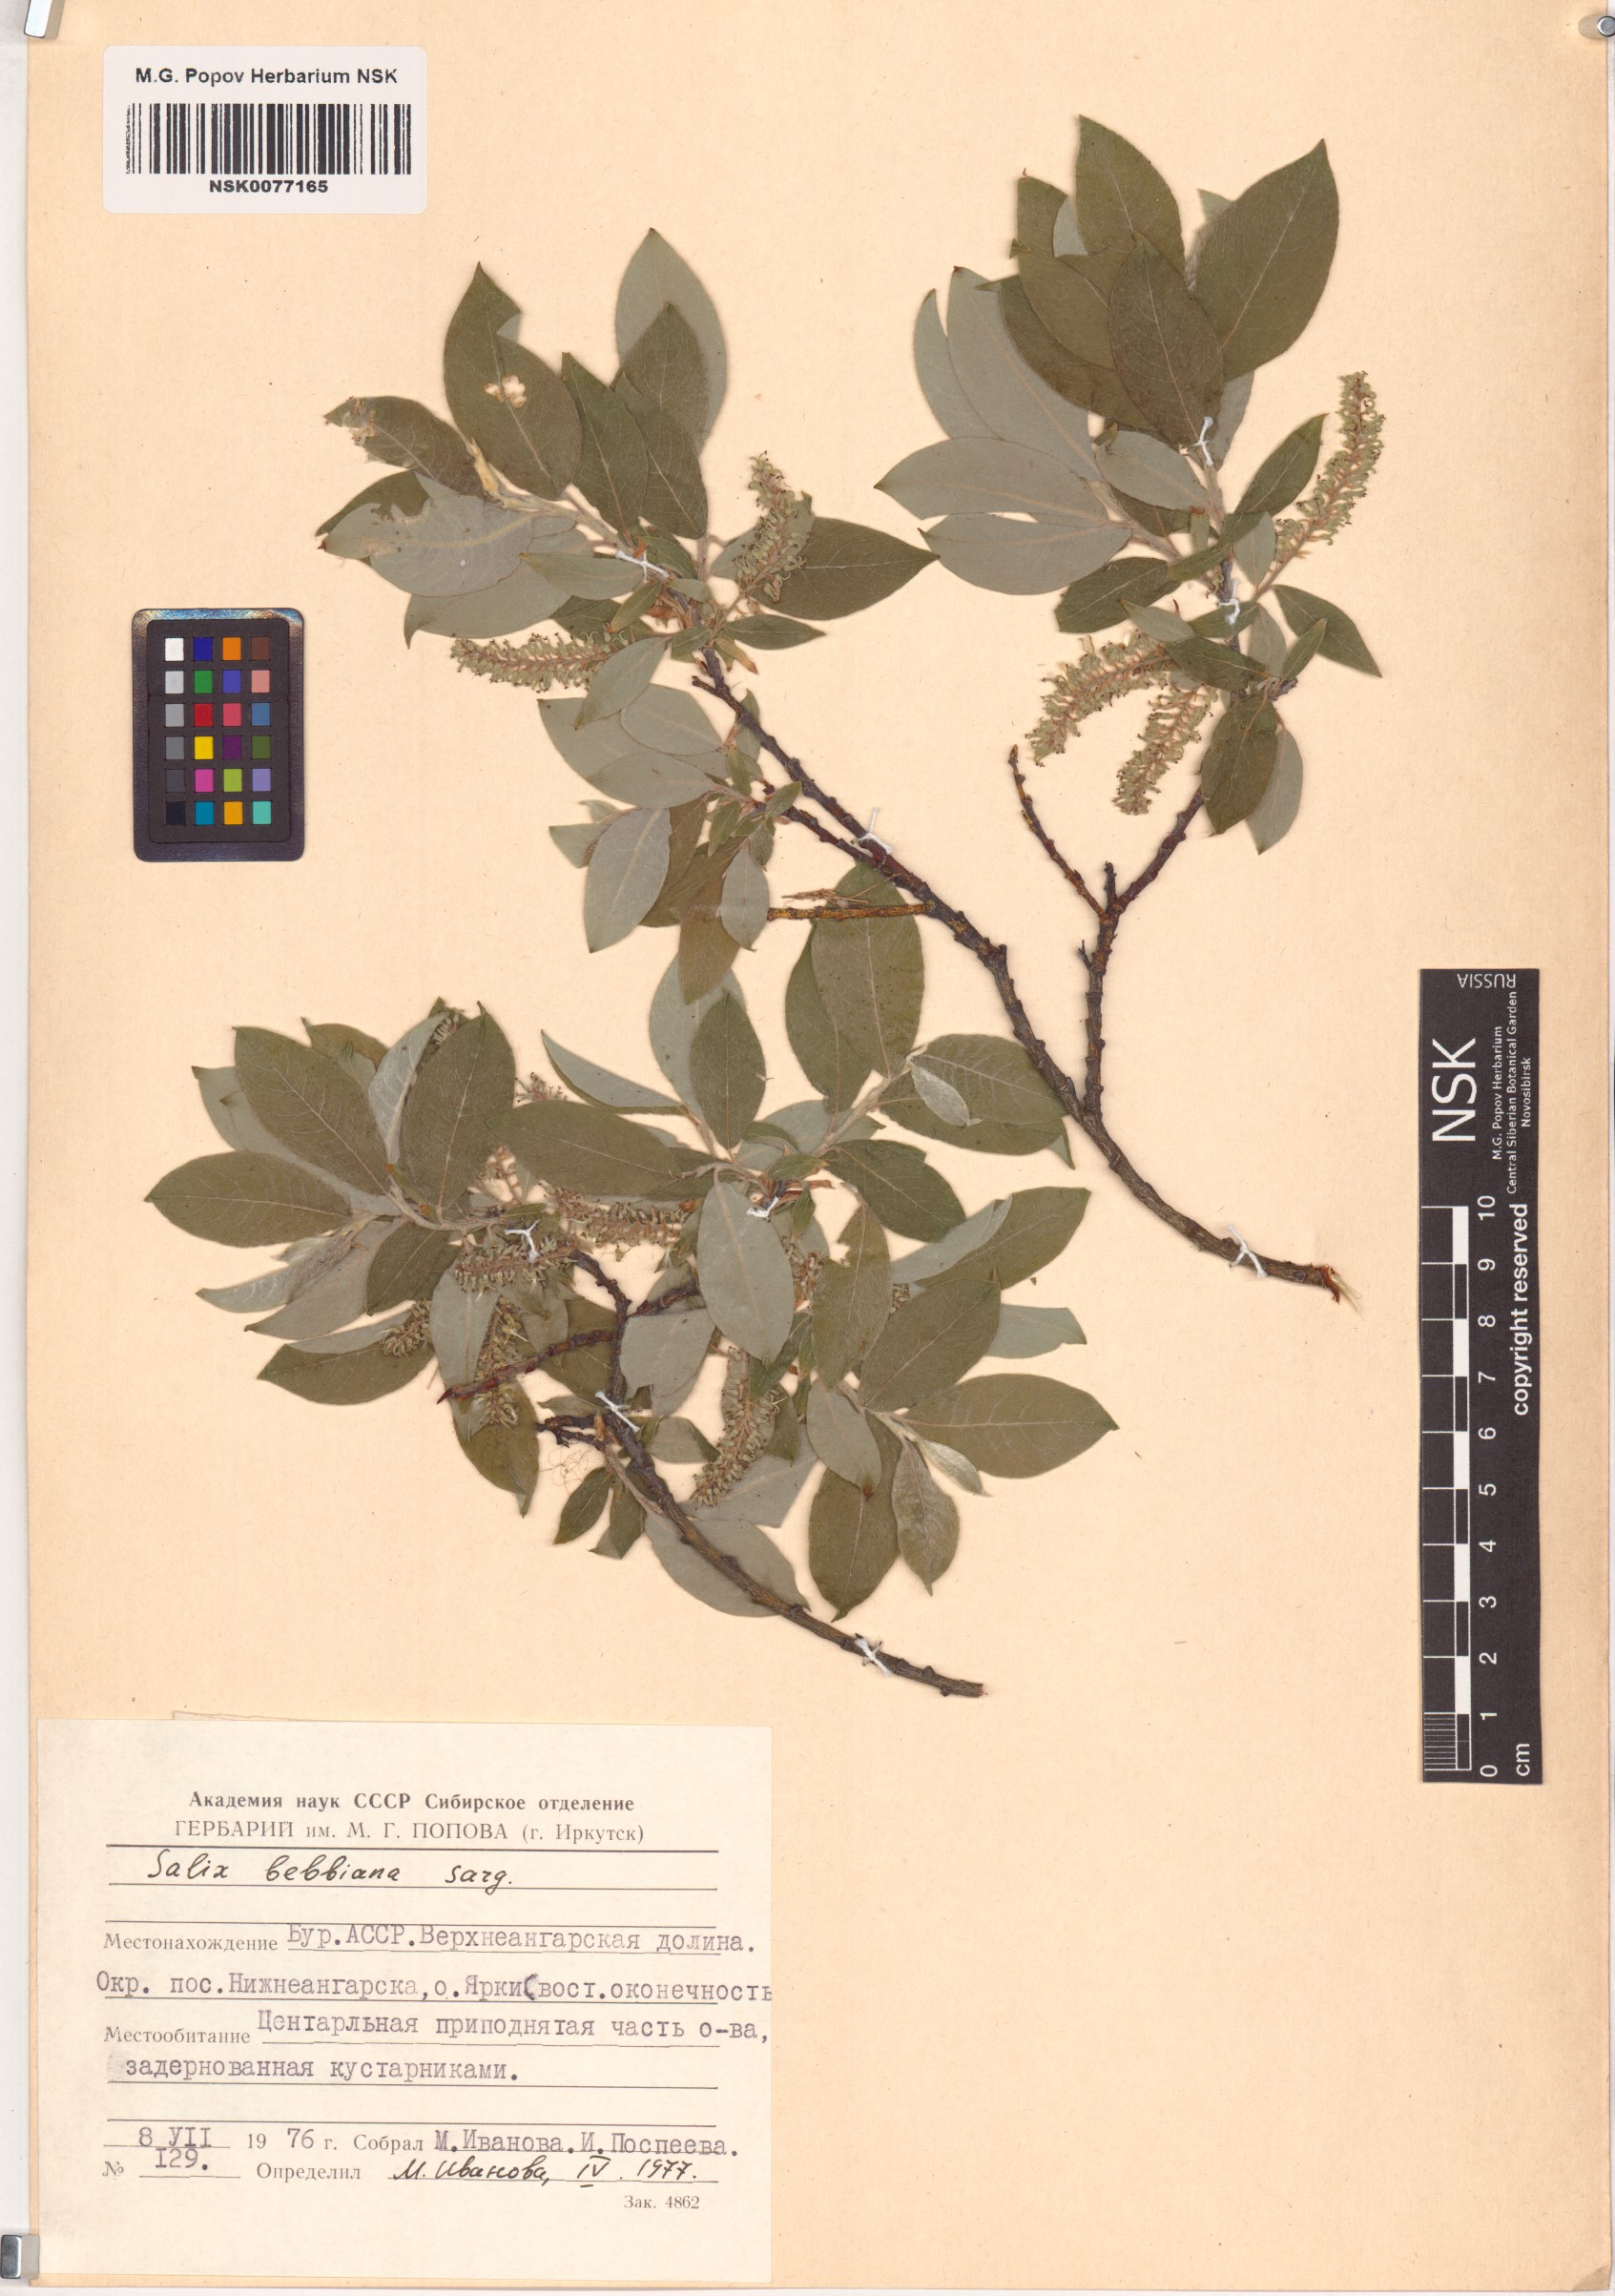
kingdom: Plantae
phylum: Tracheophyta
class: Magnoliopsida
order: Malpighiales
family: Salicaceae
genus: Salix
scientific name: Salix bebbiana
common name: Bebb's willow
